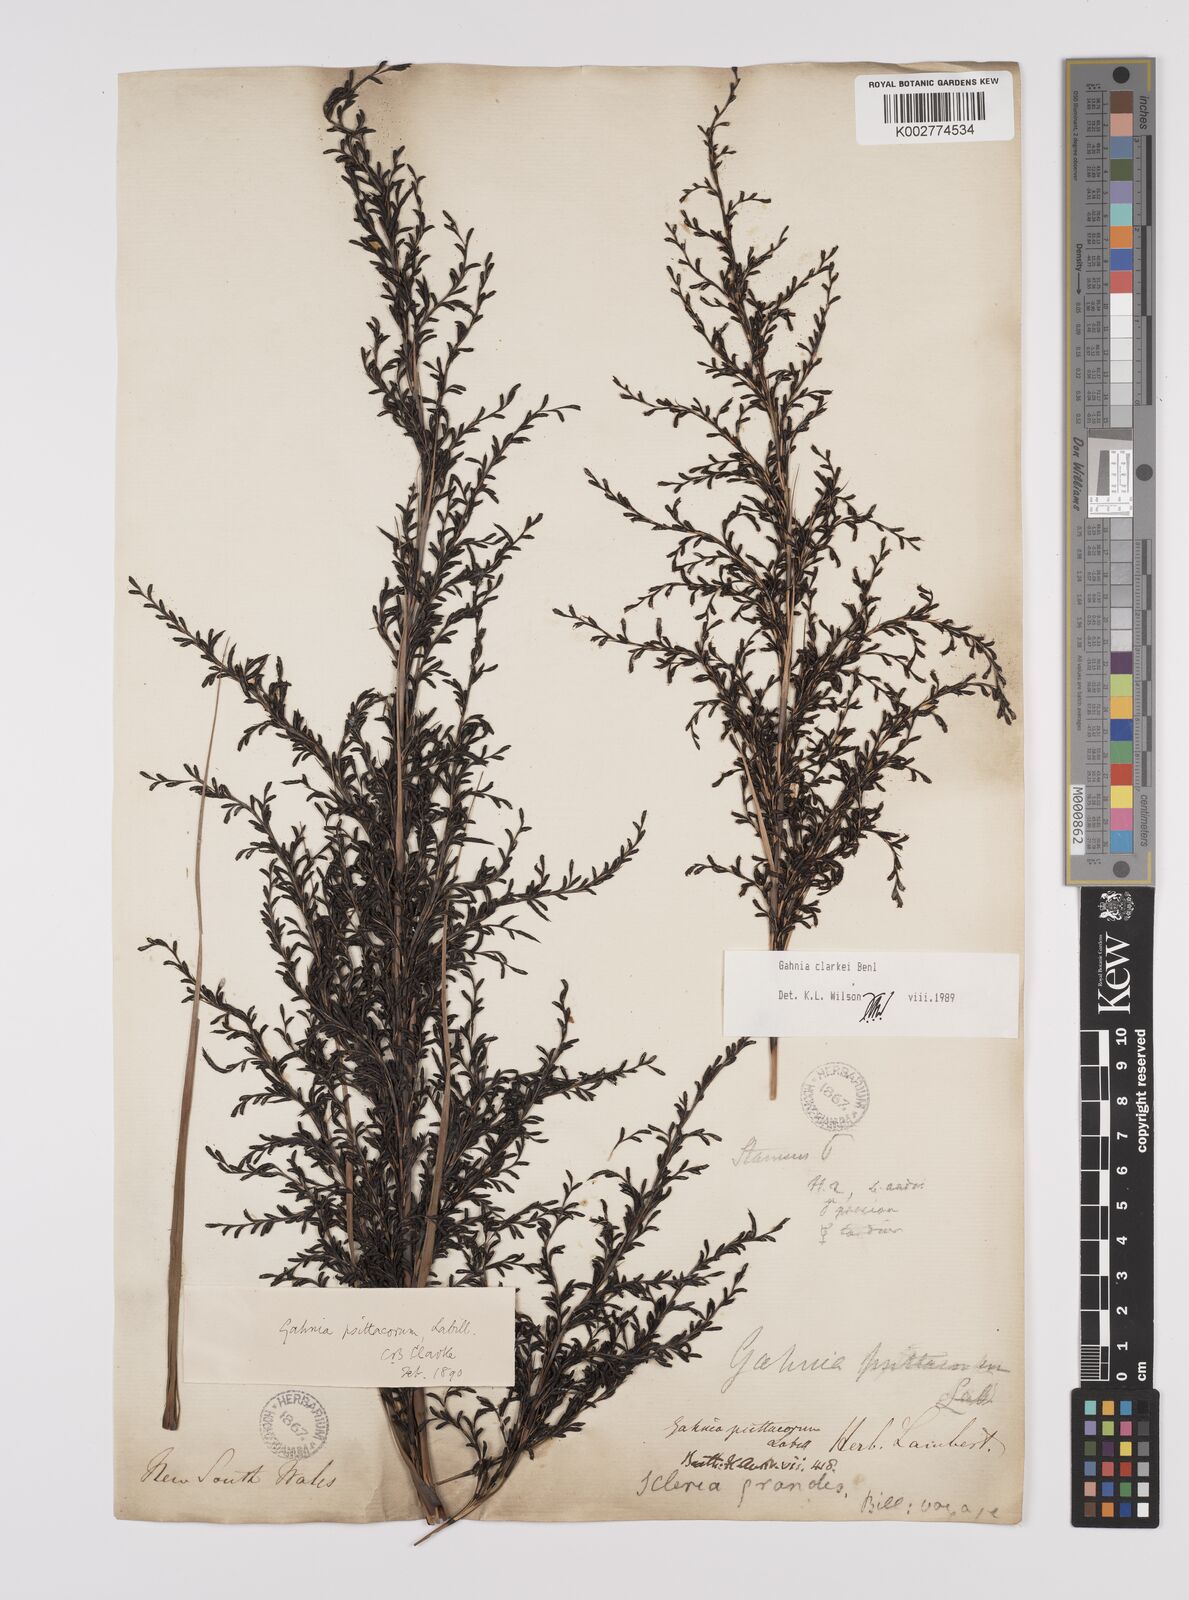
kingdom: Plantae
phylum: Tracheophyta
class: Liliopsida
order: Poales
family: Cyperaceae
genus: Gahnia
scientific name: Gahnia clarkei
